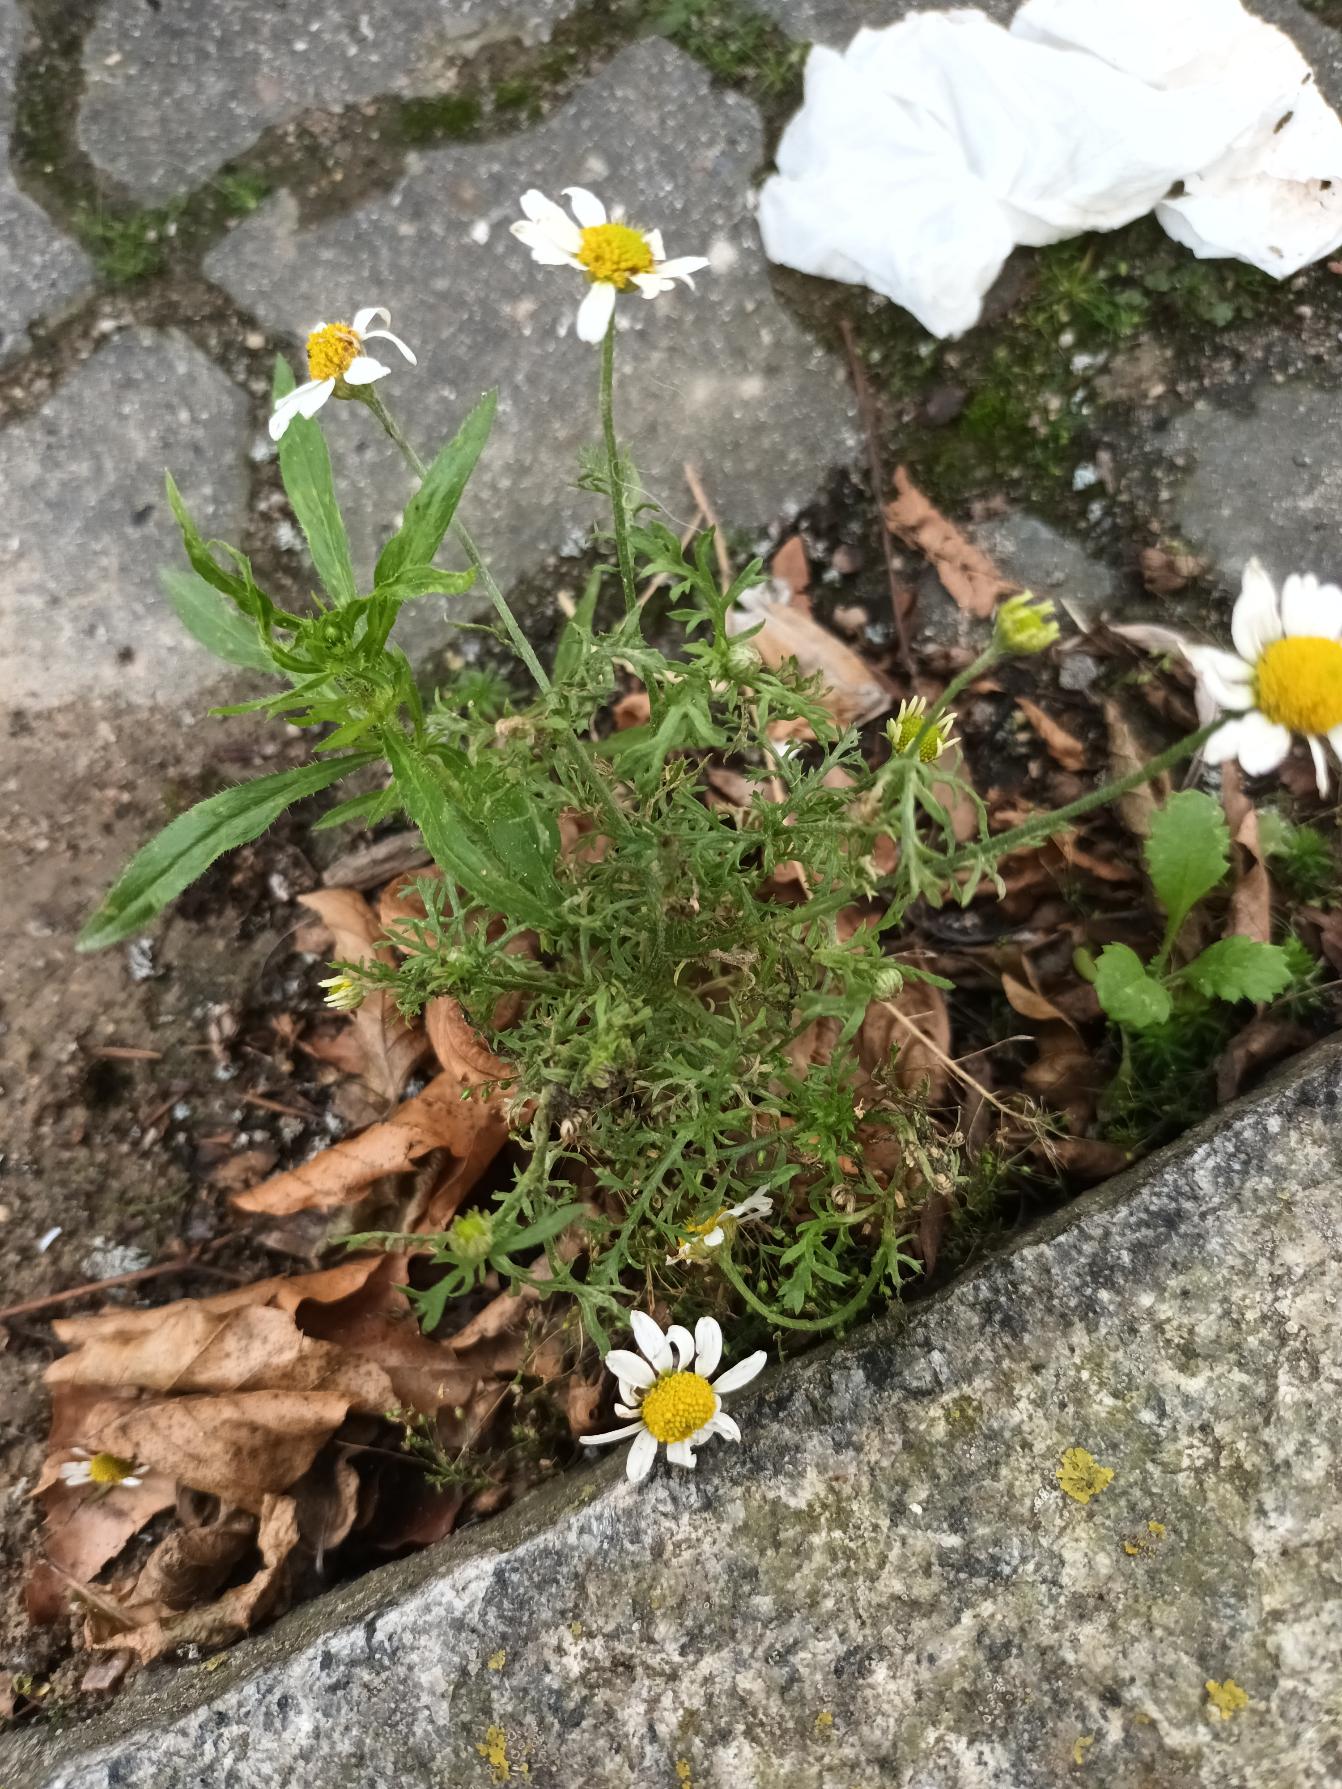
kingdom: Plantae
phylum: Tracheophyta
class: Magnoliopsida
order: Asterales
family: Asteraceae
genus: Anthemis
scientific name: Anthemis cotula
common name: Stinkende gåseurt
